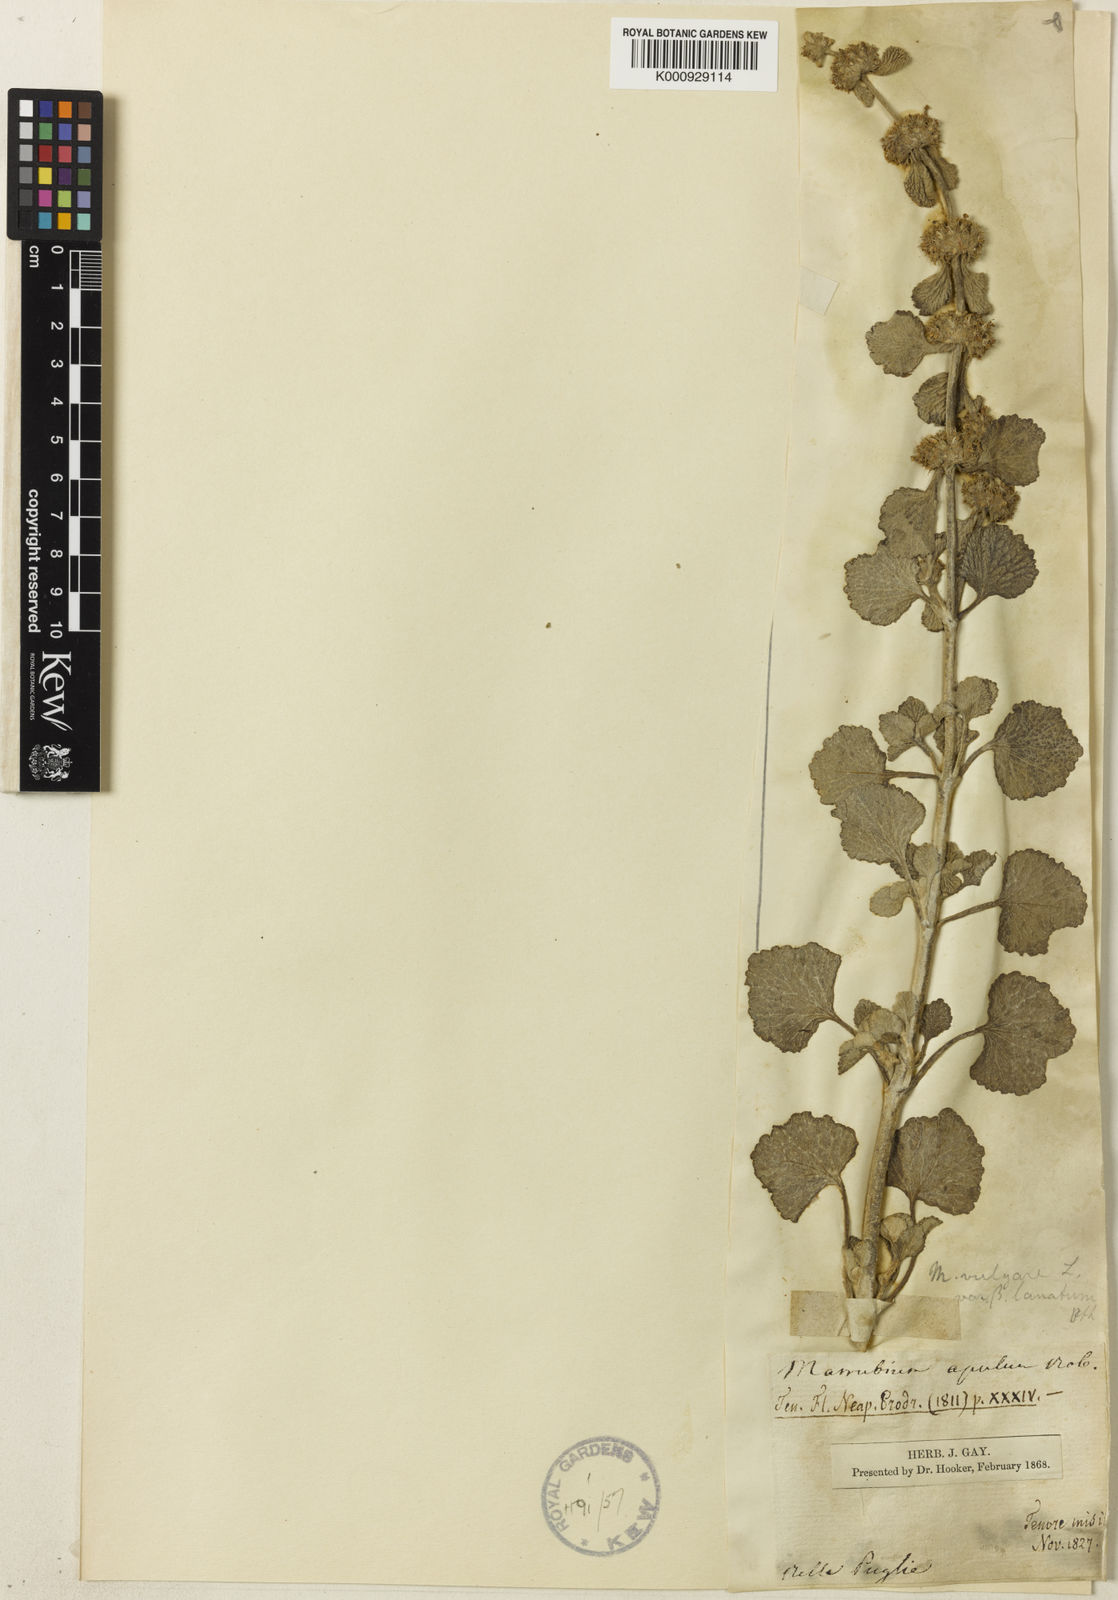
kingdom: Plantae
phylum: Tracheophyta
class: Magnoliopsida
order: Lamiales
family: Lamiaceae
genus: Marrubium
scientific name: Marrubium vulgare
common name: Horehound
